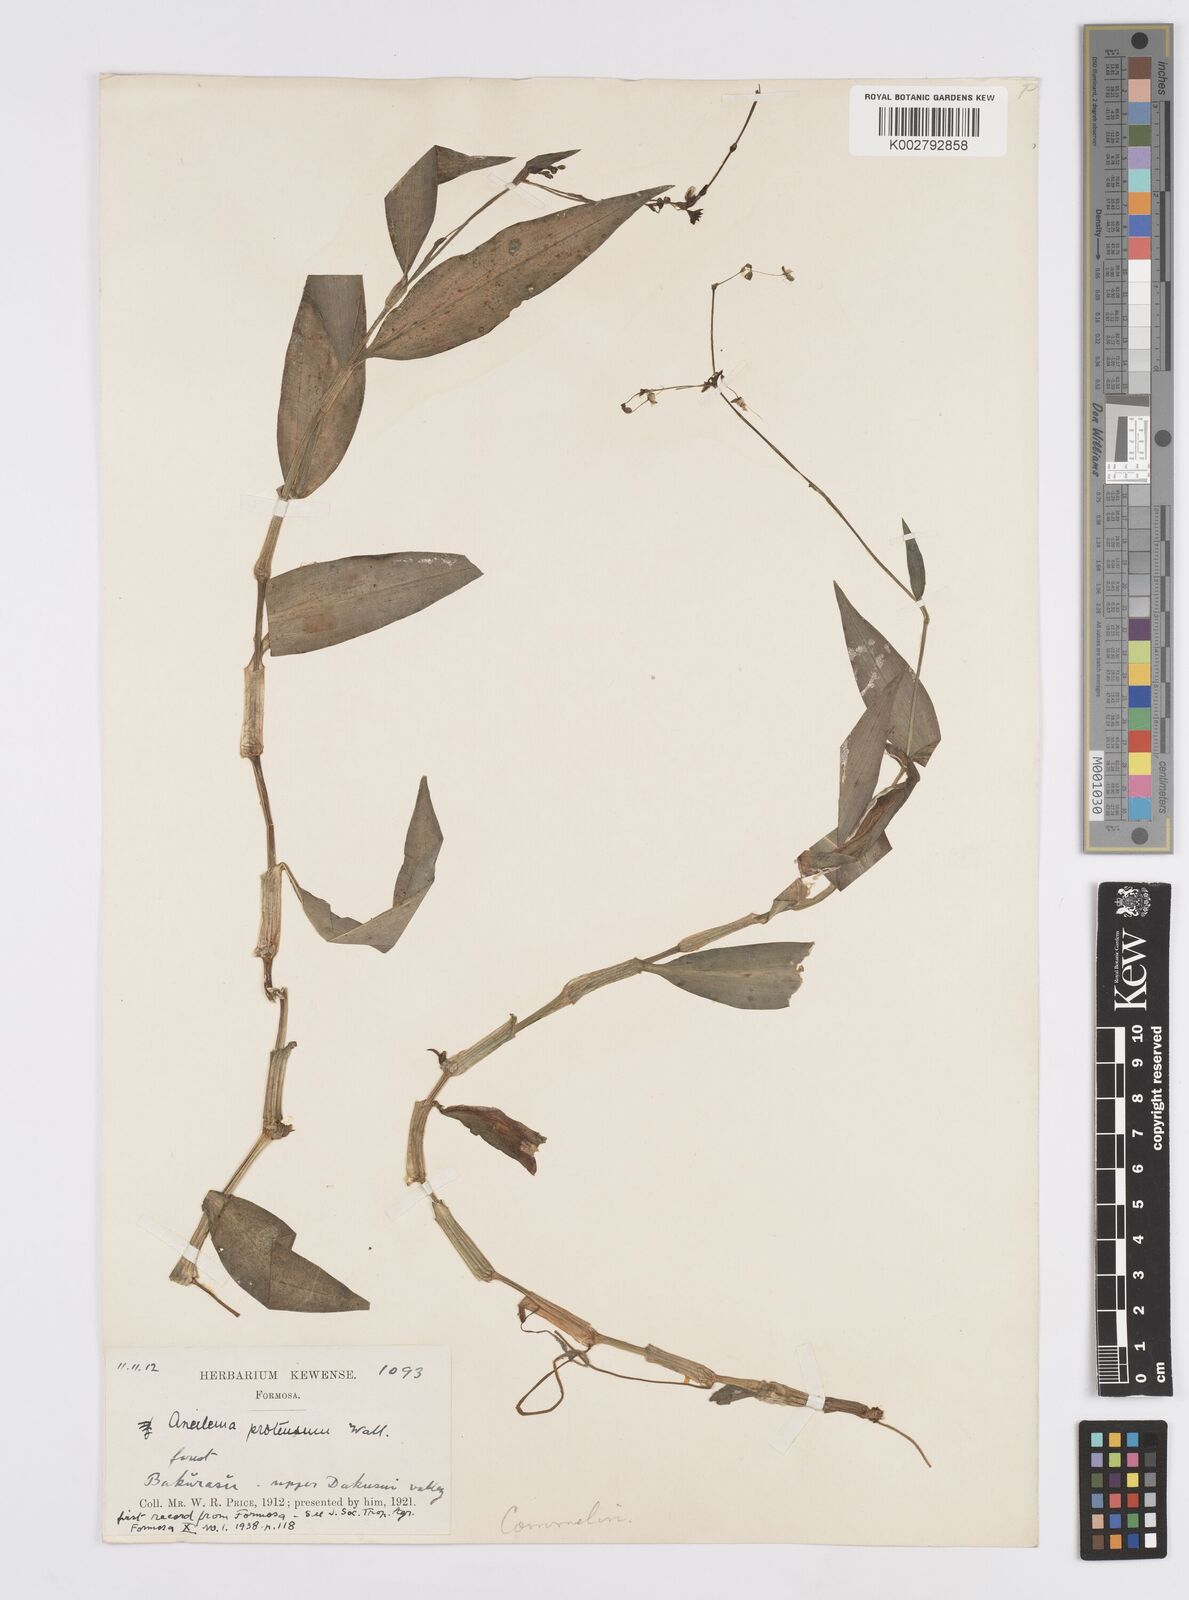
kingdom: Plantae
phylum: Tracheophyta
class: Liliopsida
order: Commelinales
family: Commelinaceae
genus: Murdannia
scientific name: Murdannia
